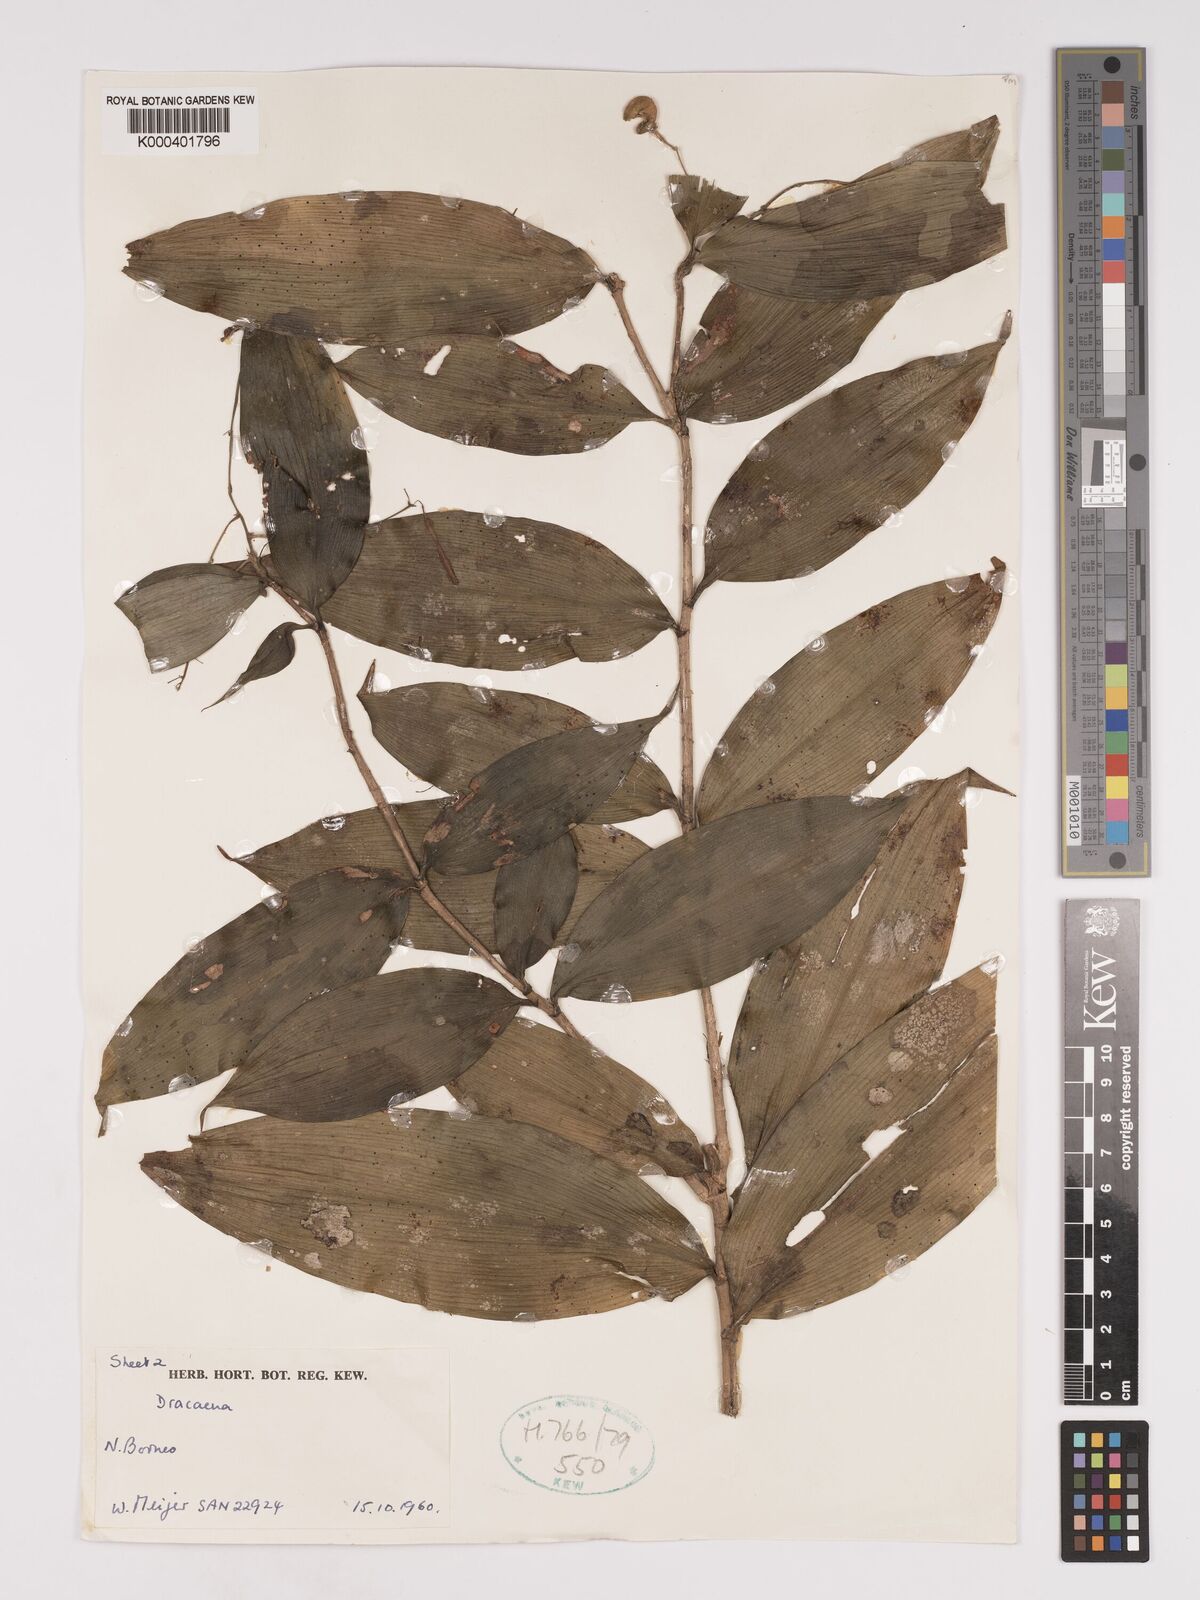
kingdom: Plantae
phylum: Tracheophyta
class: Liliopsida
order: Asparagales
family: Asparagaceae
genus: Dracaena
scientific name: Dracaena elliptica
